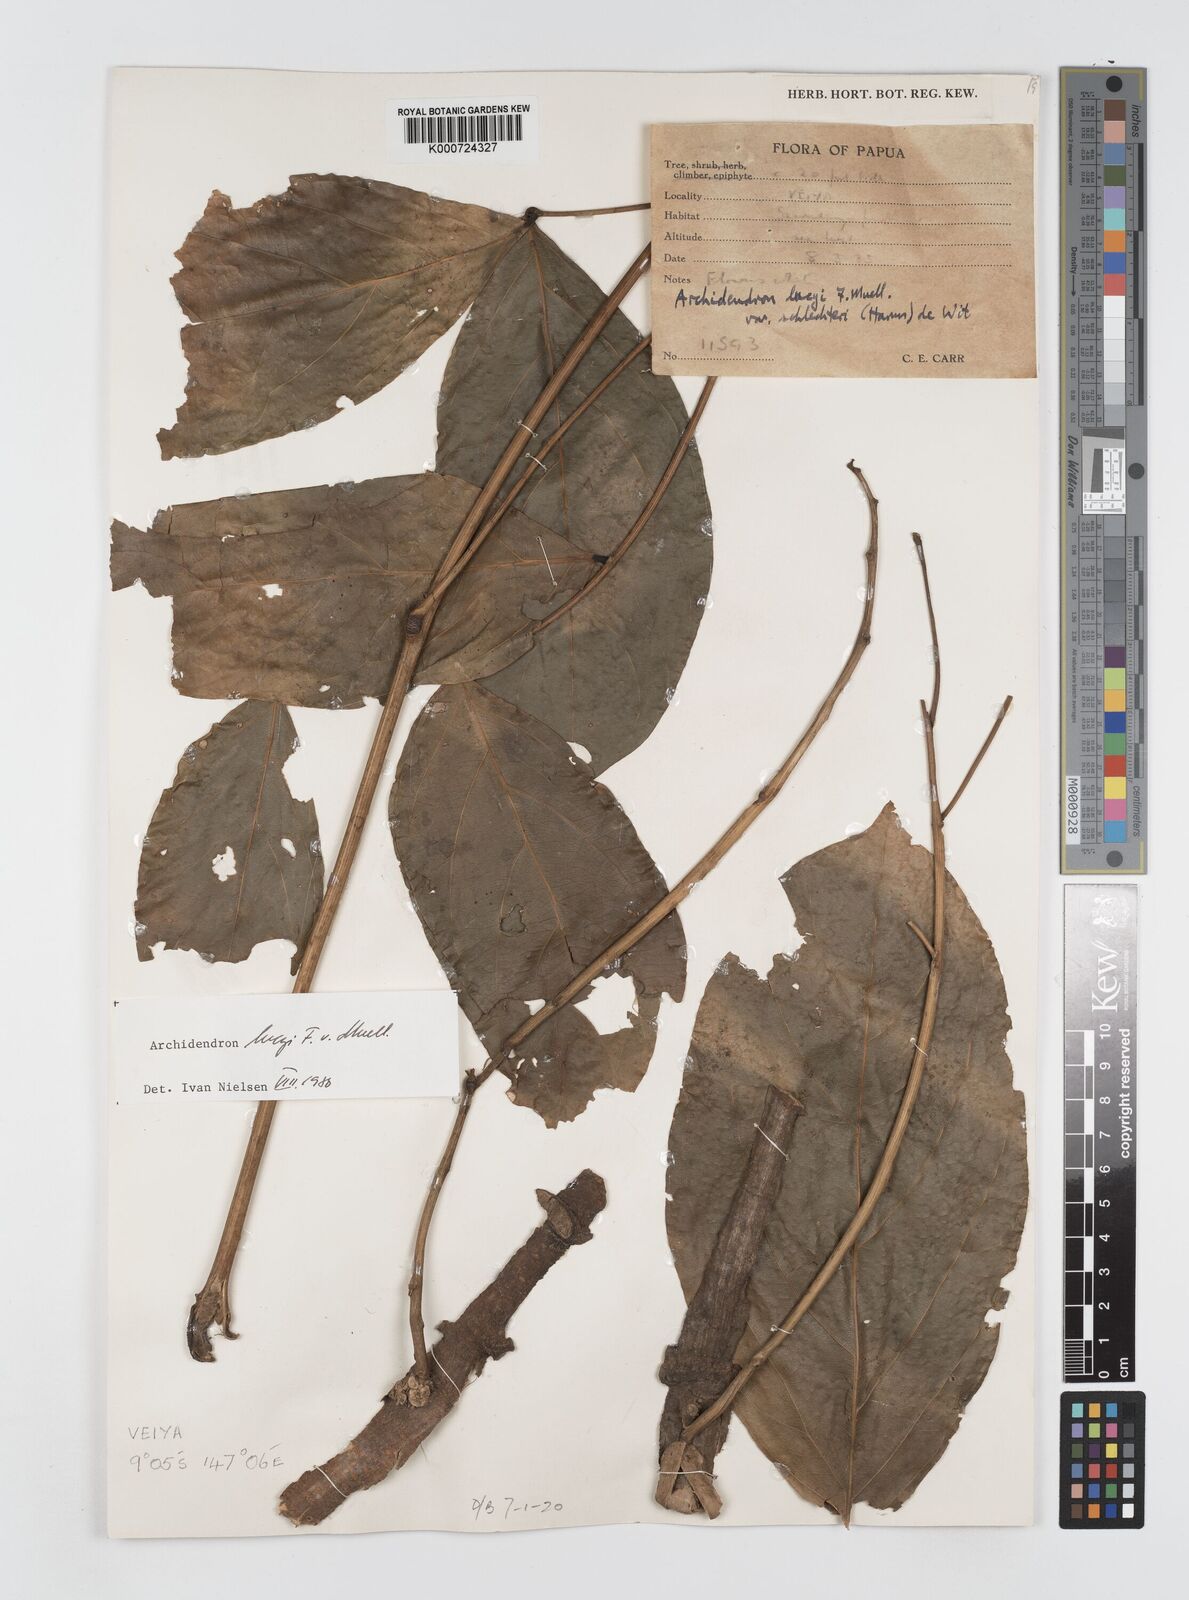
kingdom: Plantae
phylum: Tracheophyta
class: Magnoliopsida
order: Fabales
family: Fabaceae
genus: Archidendron
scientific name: Archidendron lucyi
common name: Scarlet bean
